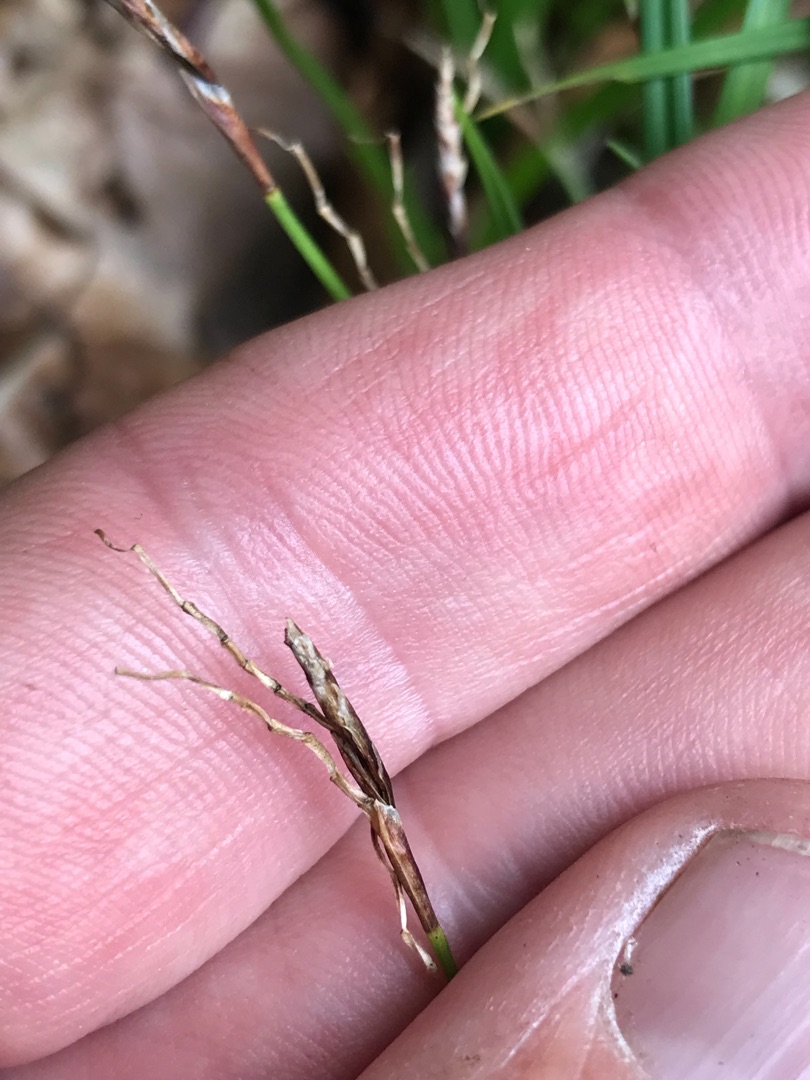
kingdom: Plantae
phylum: Tracheophyta
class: Liliopsida
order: Poales
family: Cyperaceae
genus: Carex
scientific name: Carex digitata
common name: Finger-star
